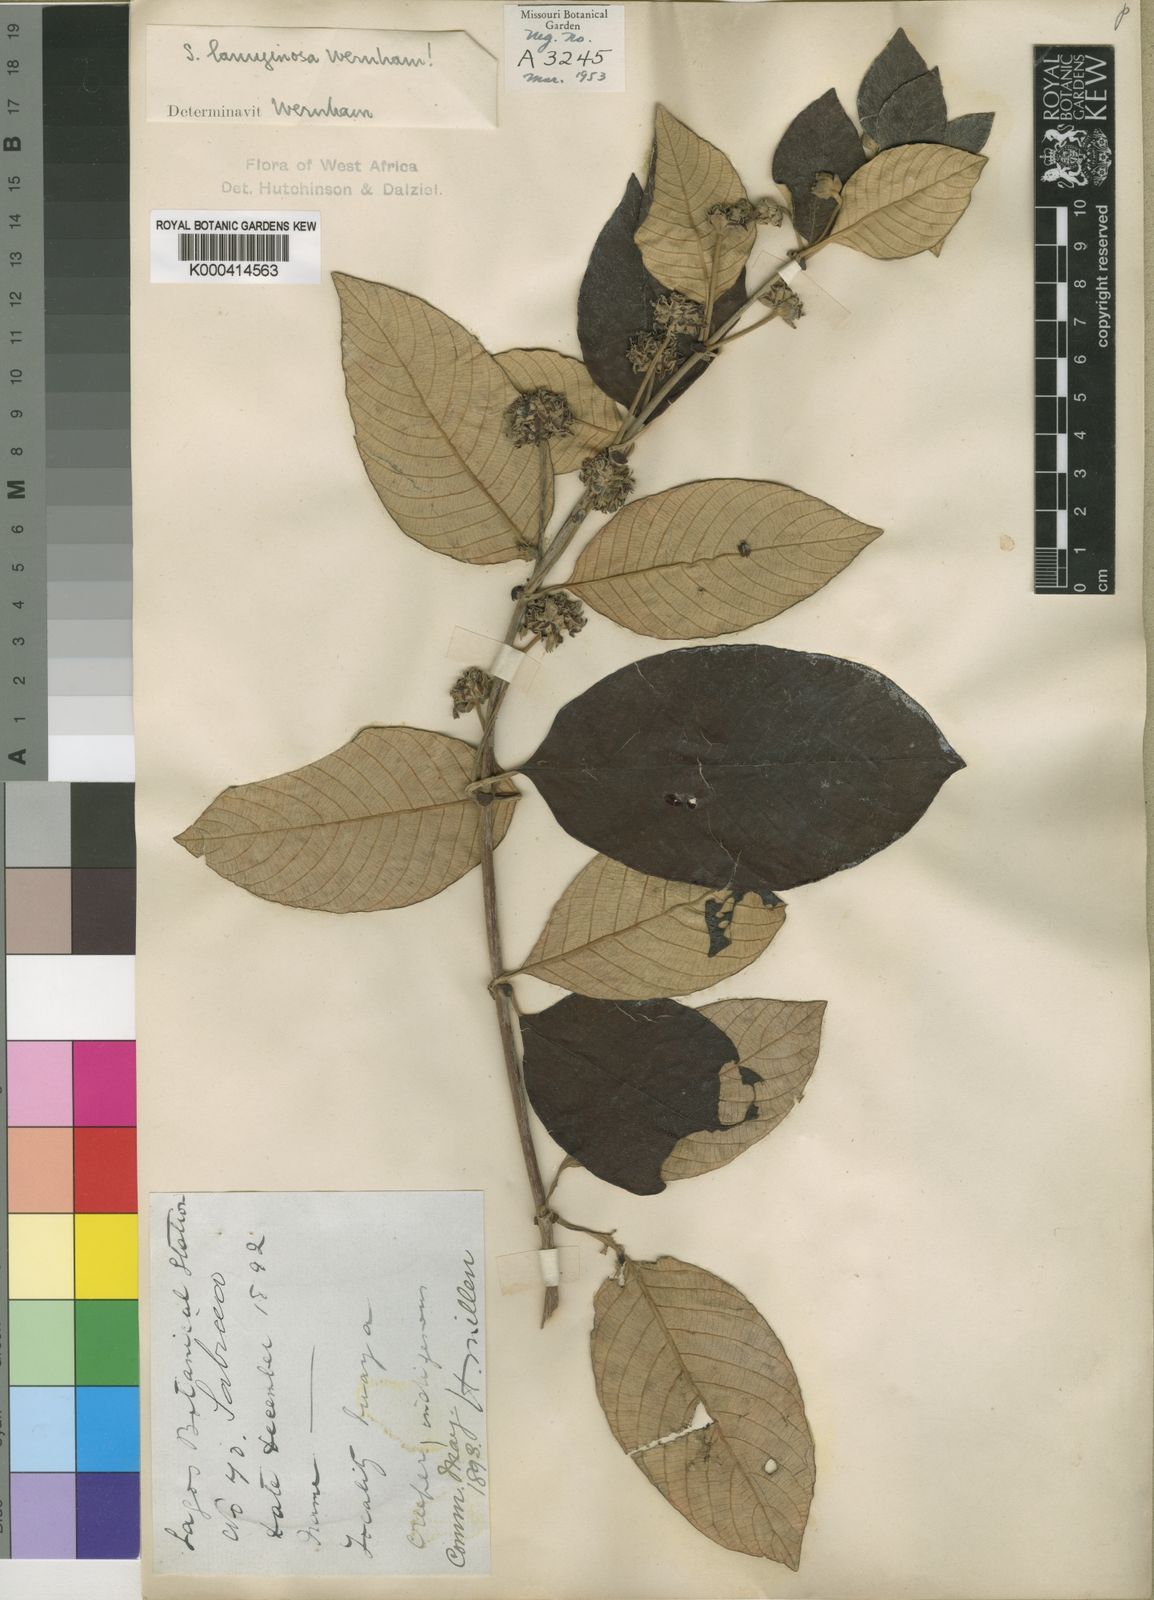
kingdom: Plantae
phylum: Tracheophyta
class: Magnoliopsida
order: Gentianales
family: Rubiaceae
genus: Sabicea
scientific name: Sabicea lanuginosa
